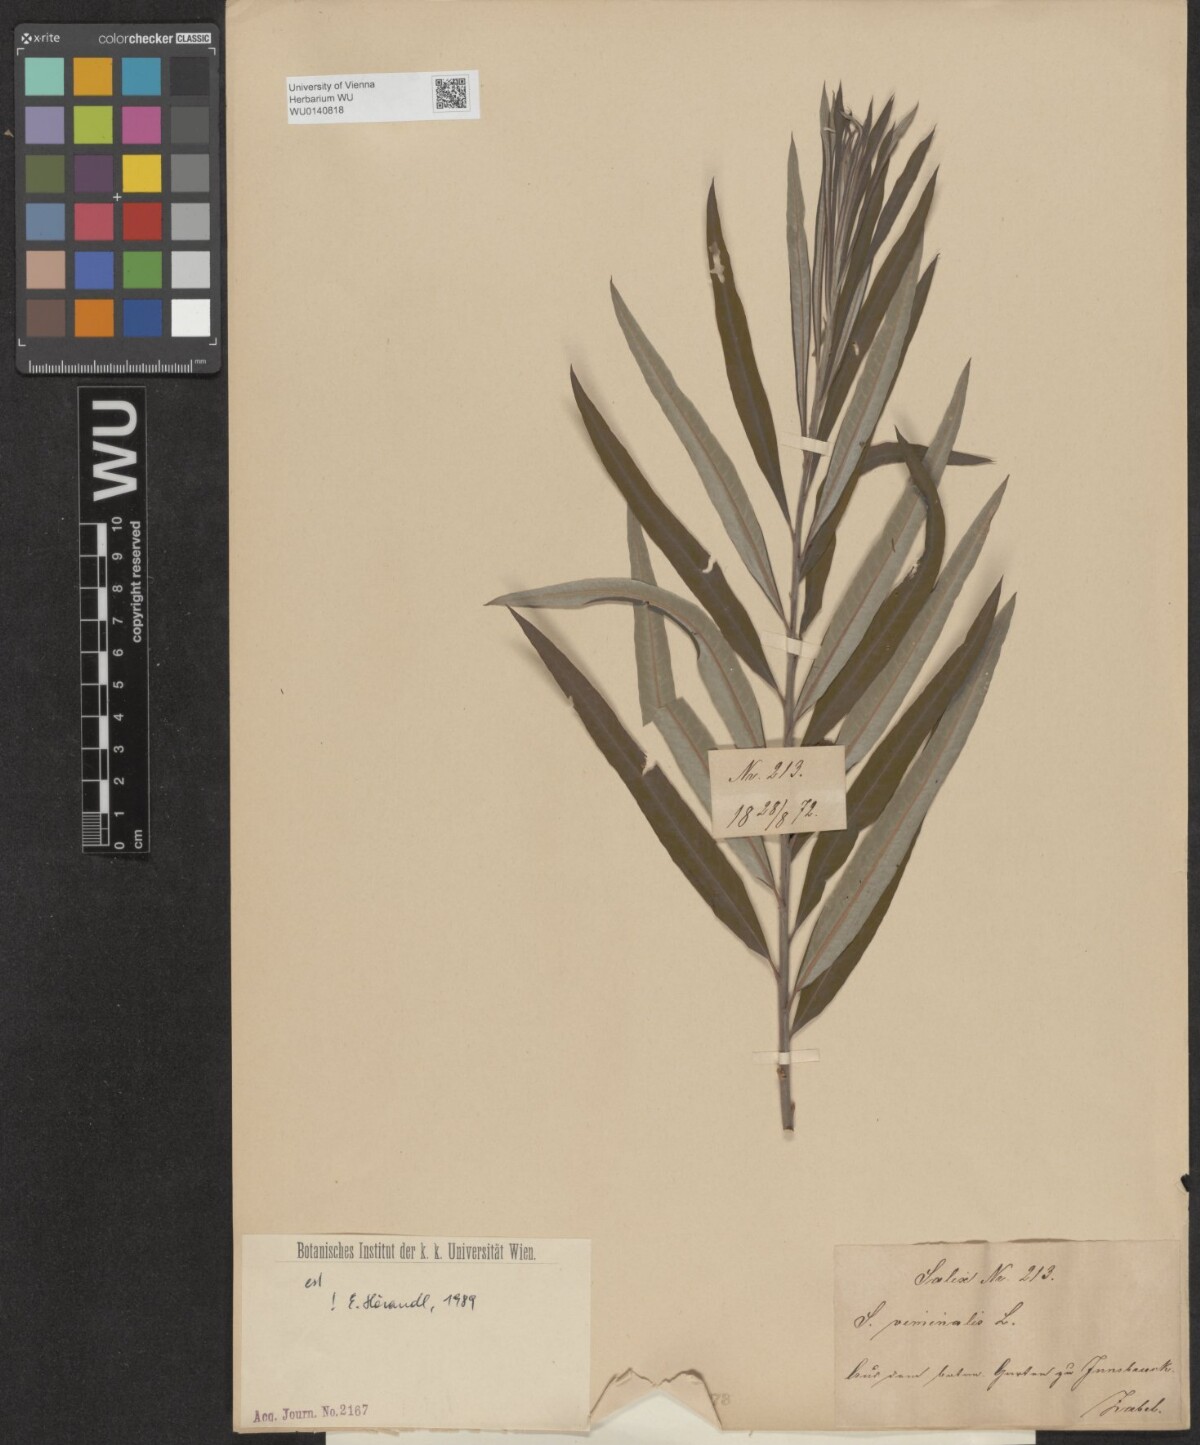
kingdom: Plantae
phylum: Tracheophyta
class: Magnoliopsida
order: Malpighiales
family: Salicaceae
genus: Salix
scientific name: Salix viminalis
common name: Osier
